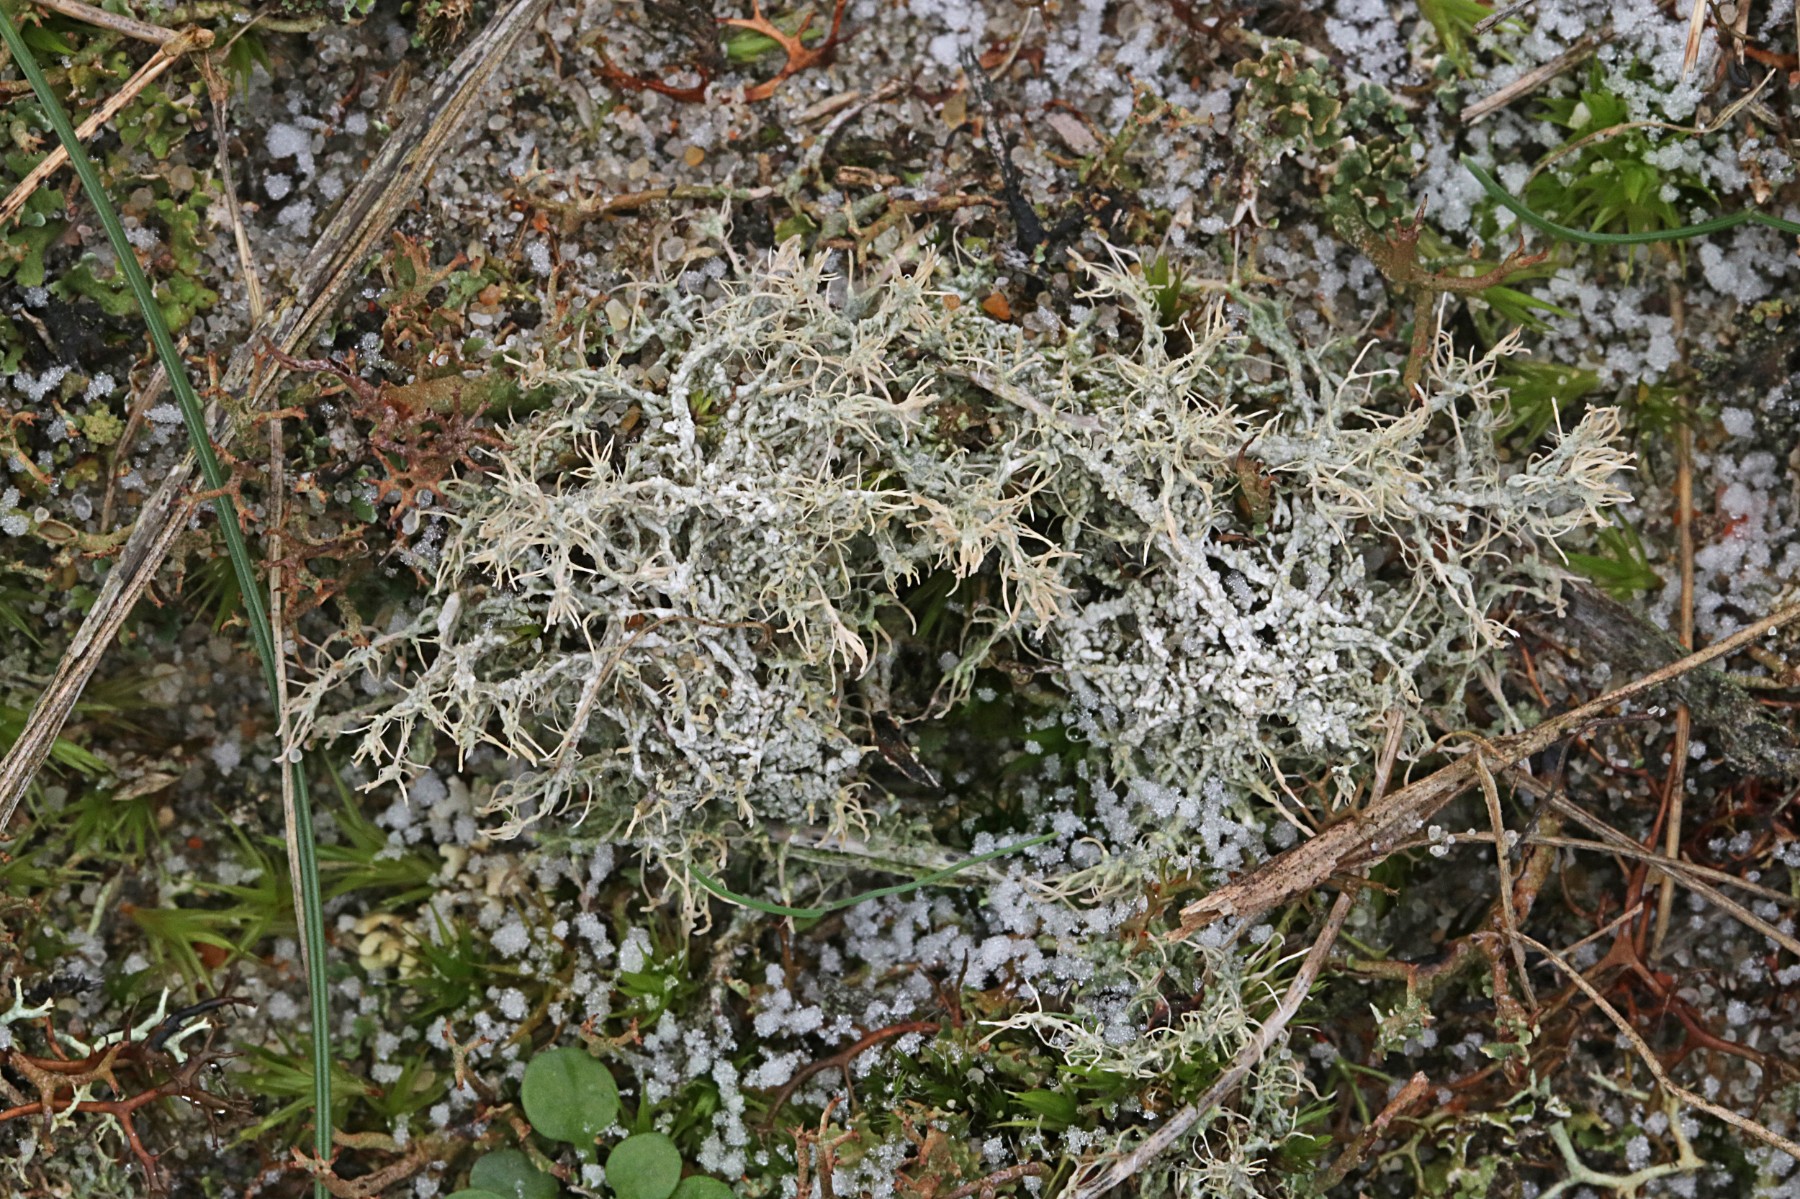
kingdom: Fungi
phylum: Ascomycota
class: Lecanoromycetes
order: Pertusariales
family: Ochrolechiaceae
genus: Ochrolechia
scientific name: Ochrolechia frigida
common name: fjeld-blegskivelav
